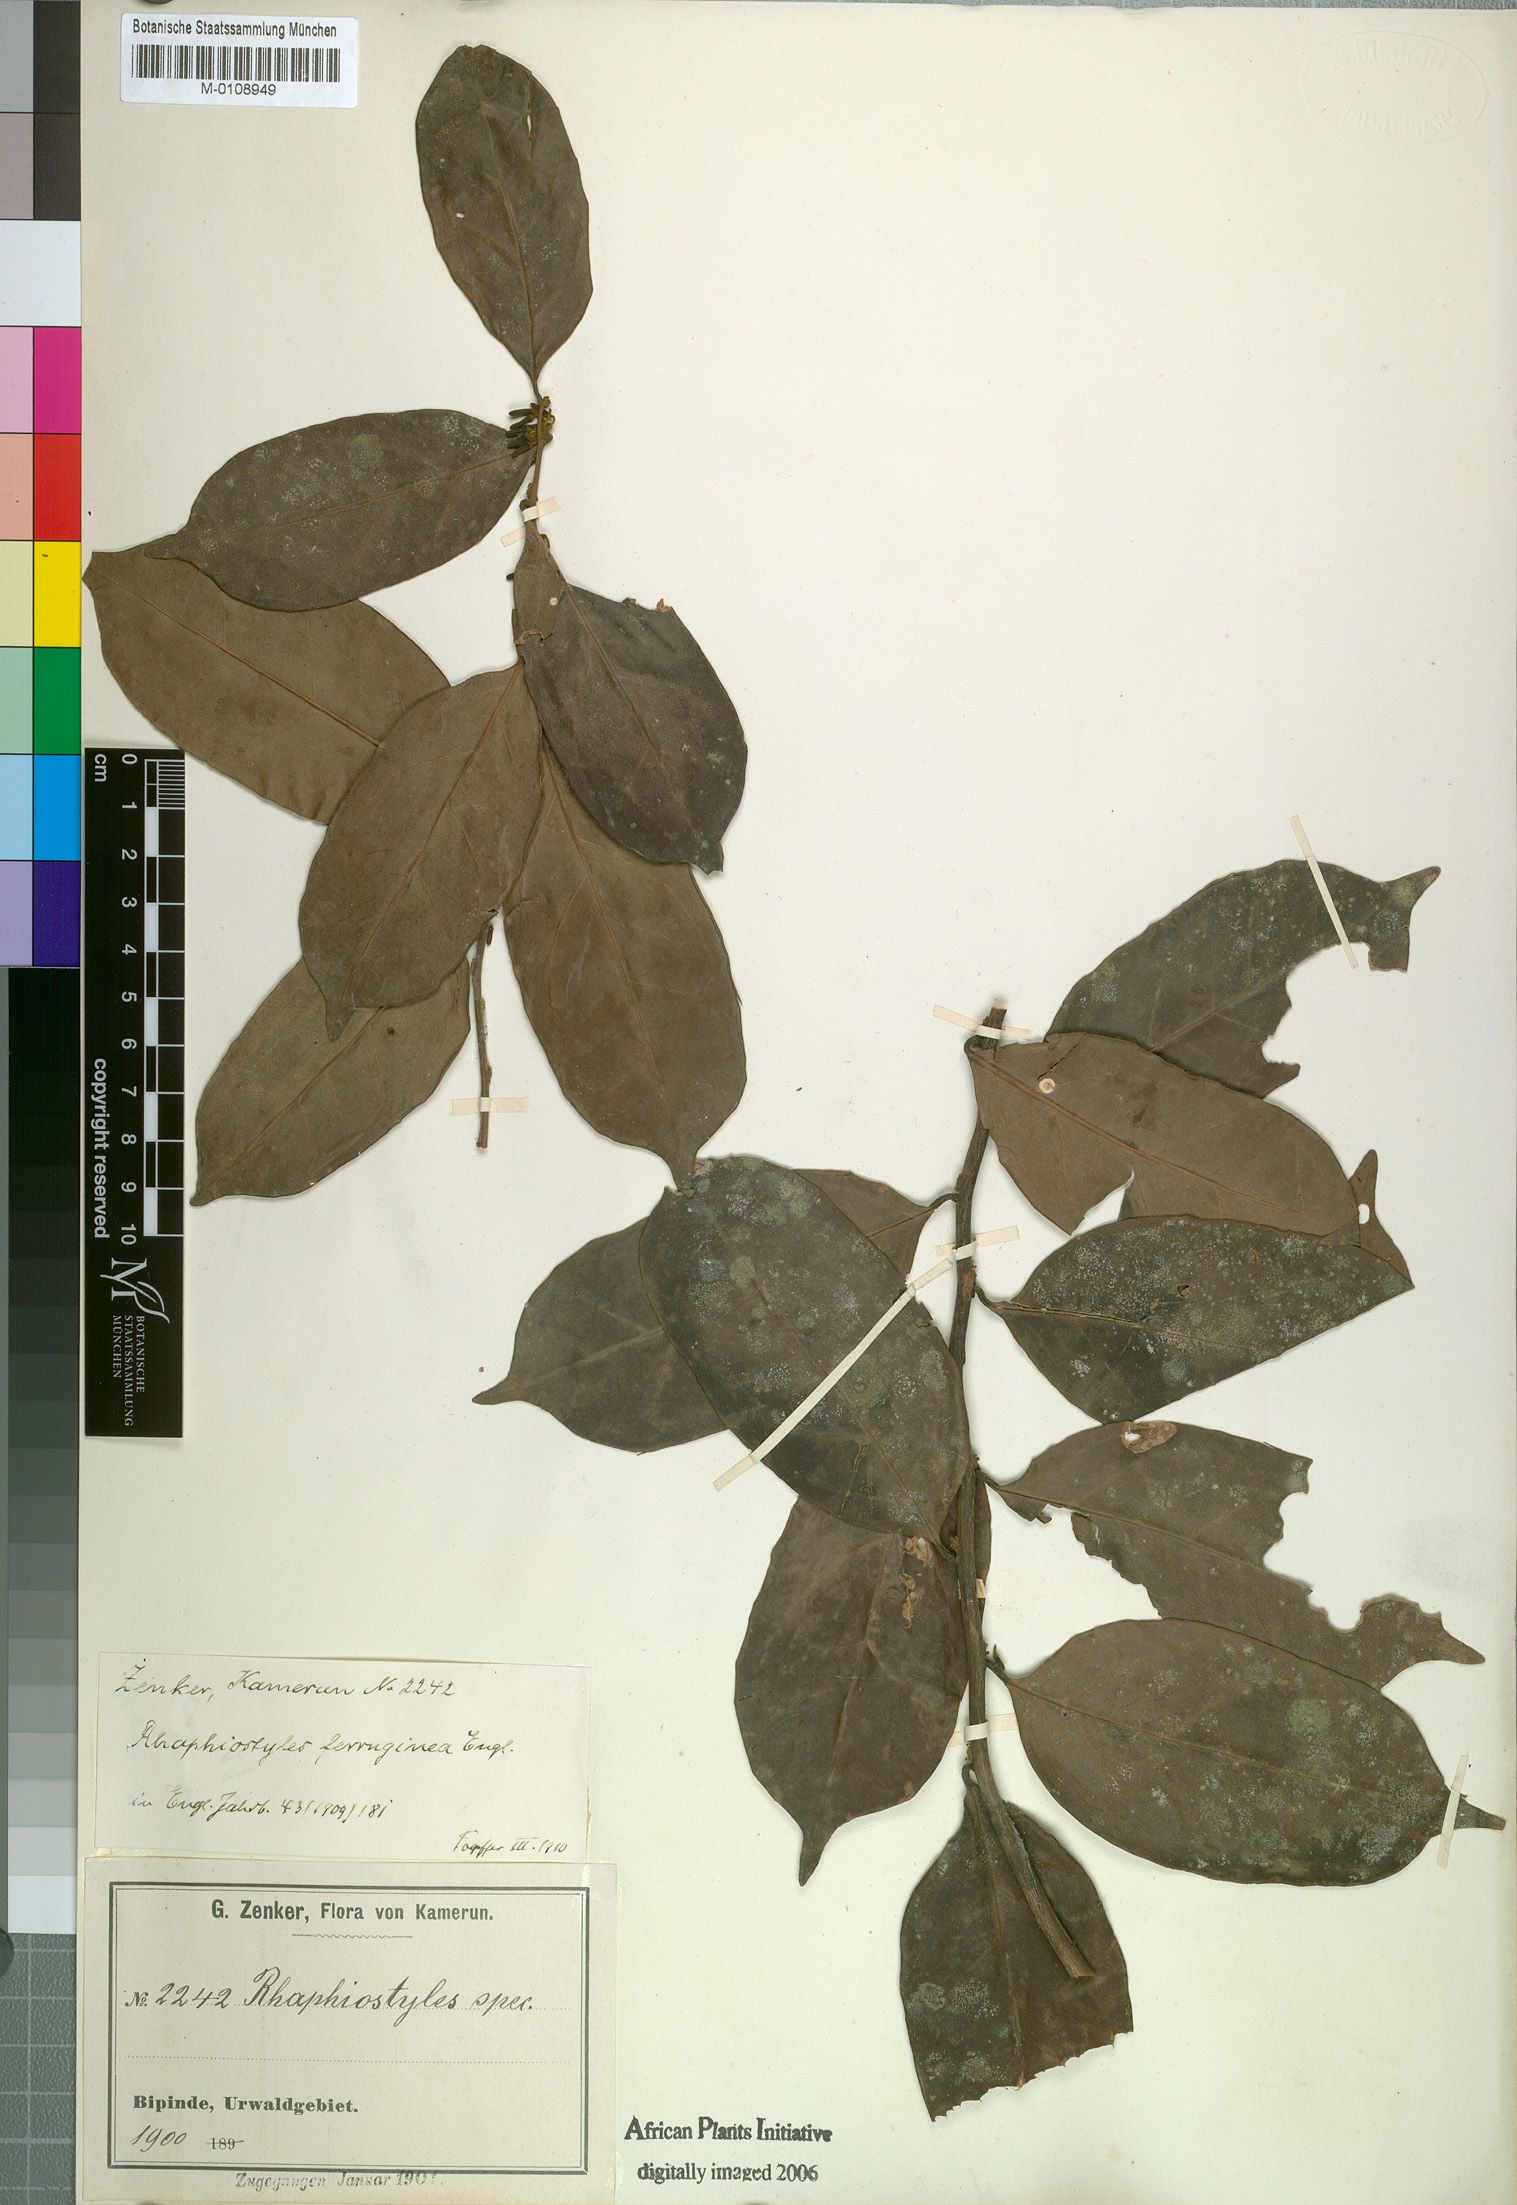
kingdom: Plantae
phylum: Tracheophyta
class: Magnoliopsida
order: Metteniusales
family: Metteniusaceae
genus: Rhaphiostylis
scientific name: Rhaphiostylis ferruginea
